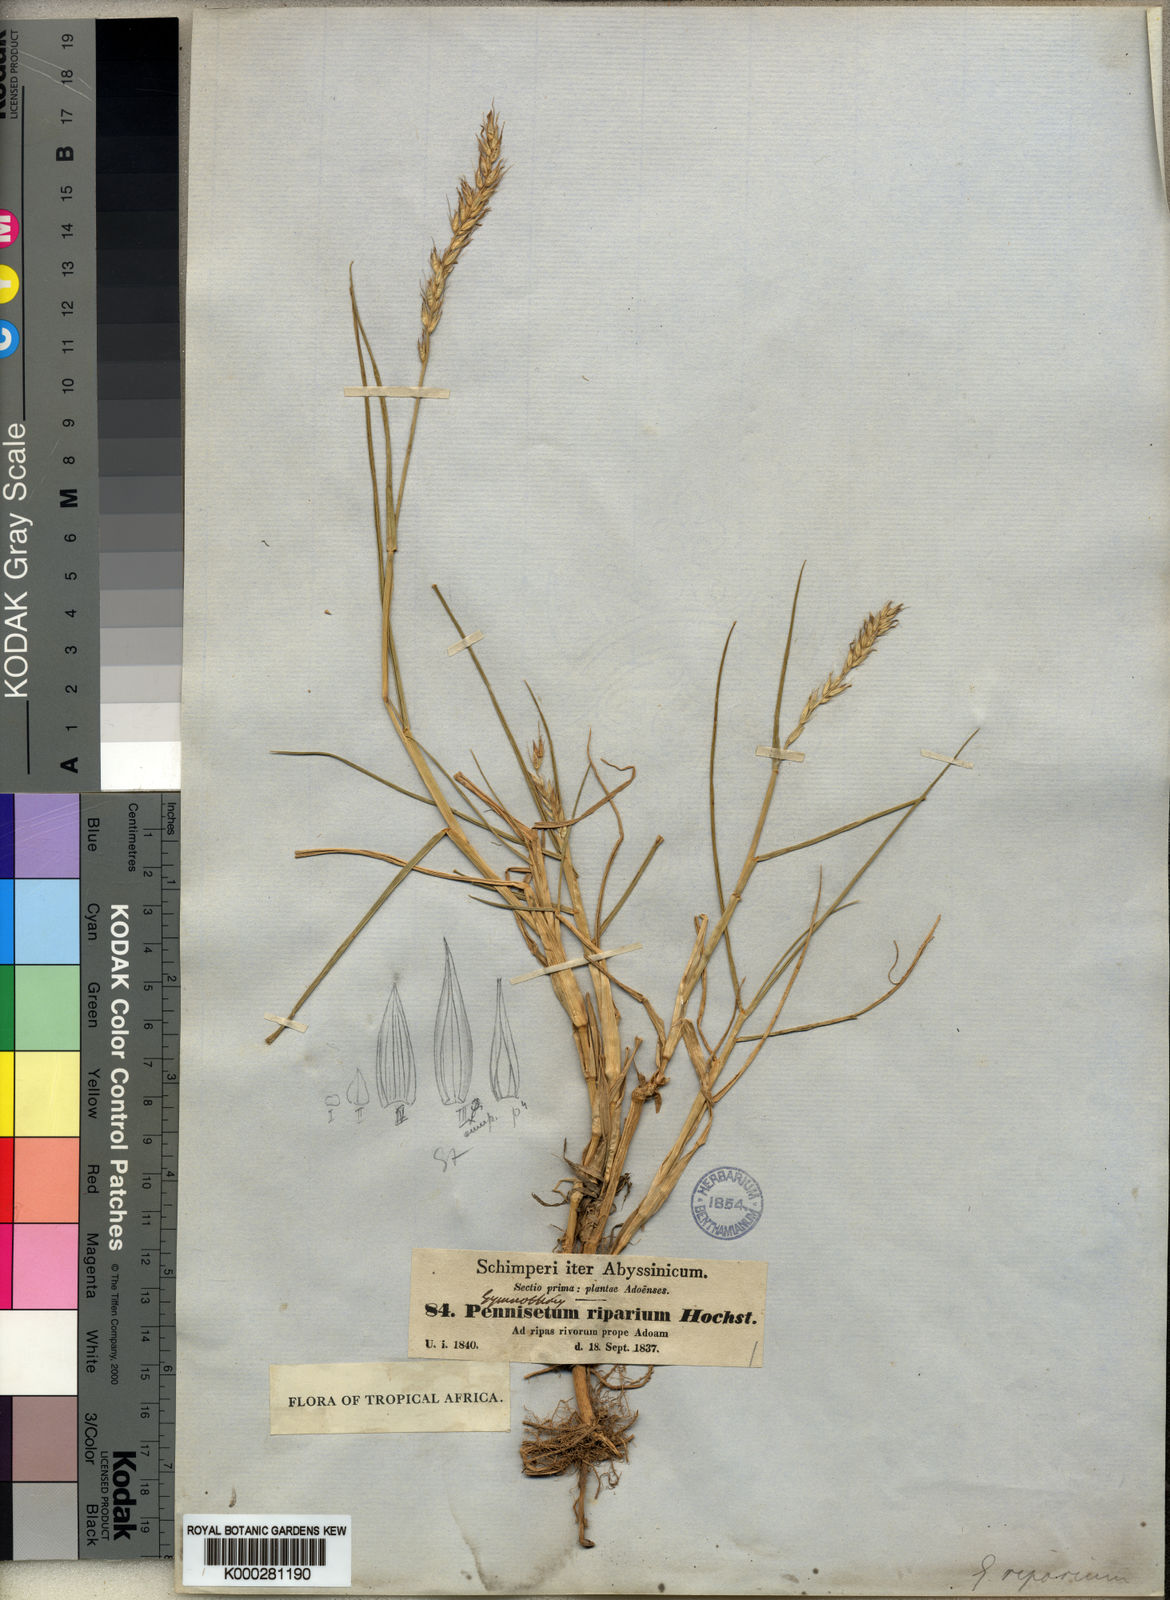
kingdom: Plantae
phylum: Tracheophyta
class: Liliopsida
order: Poales
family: Poaceae
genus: Cenchrus
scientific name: Cenchrus riparius
